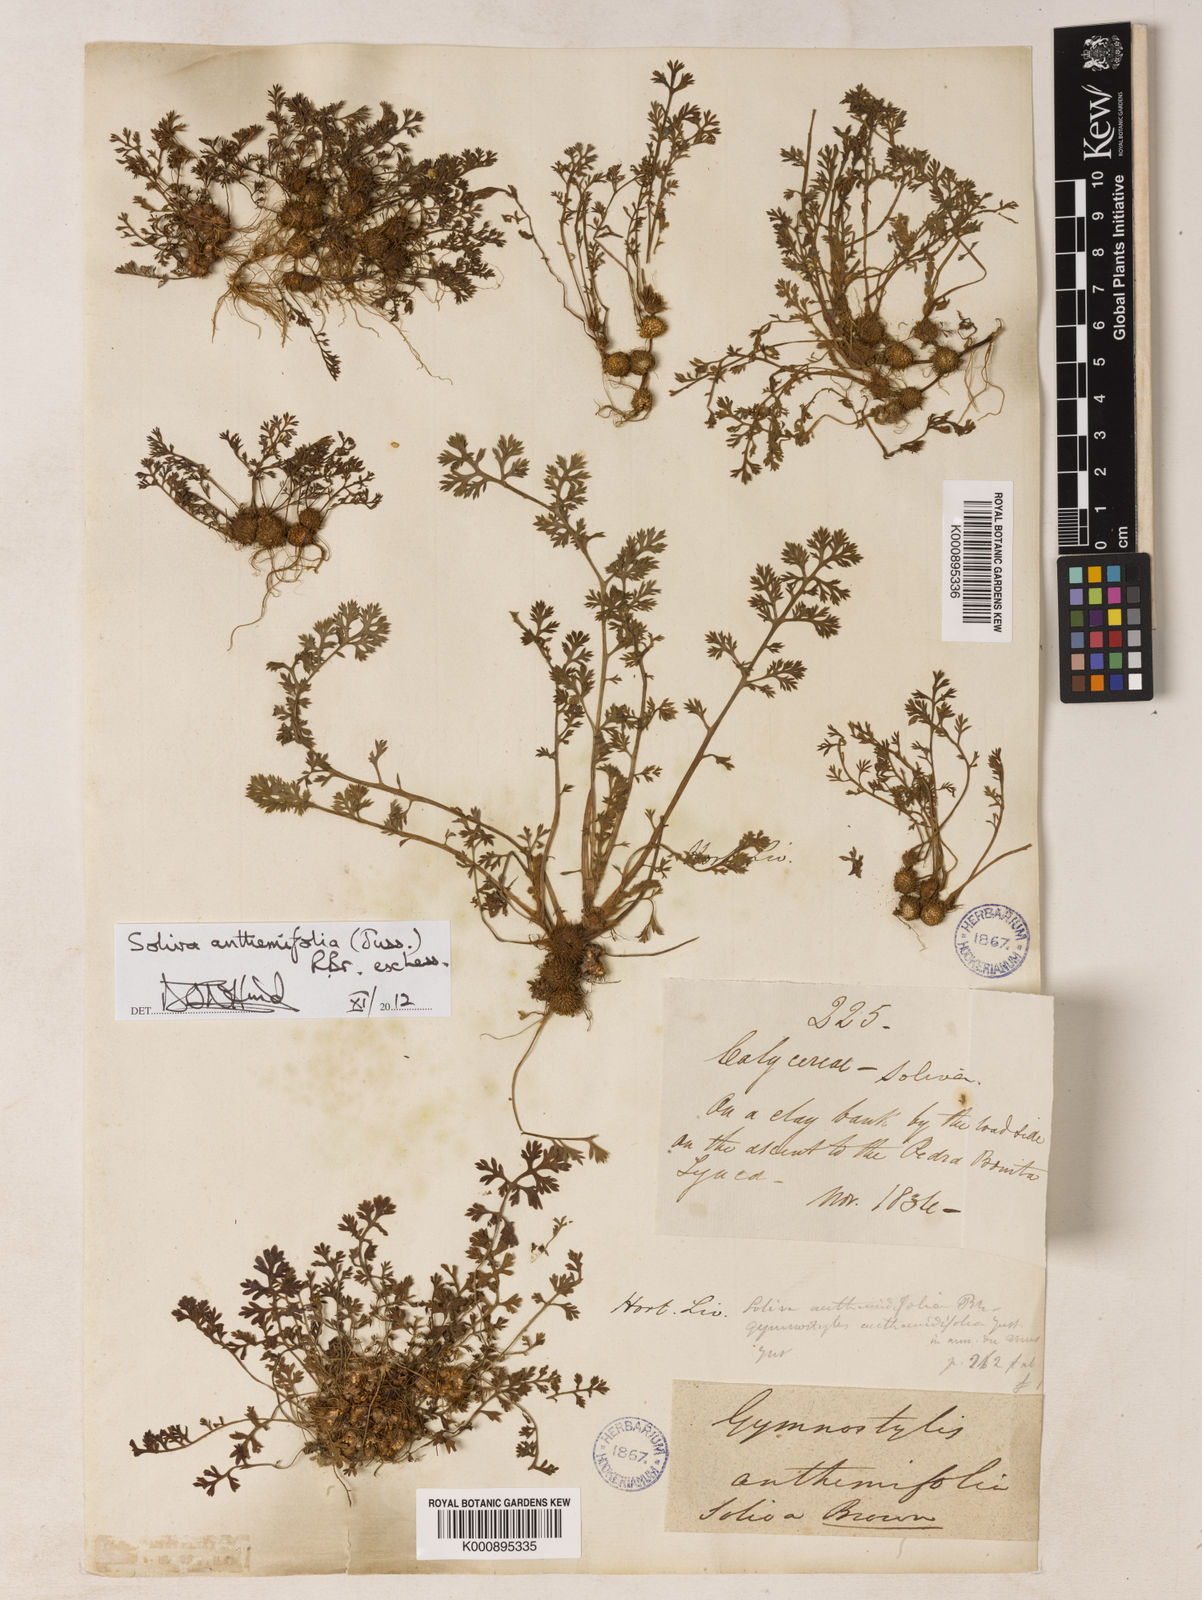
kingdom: Plantae
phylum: Tracheophyta
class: Magnoliopsida
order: Asterales
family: Asteraceae
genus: Soliva
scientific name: Soliva
